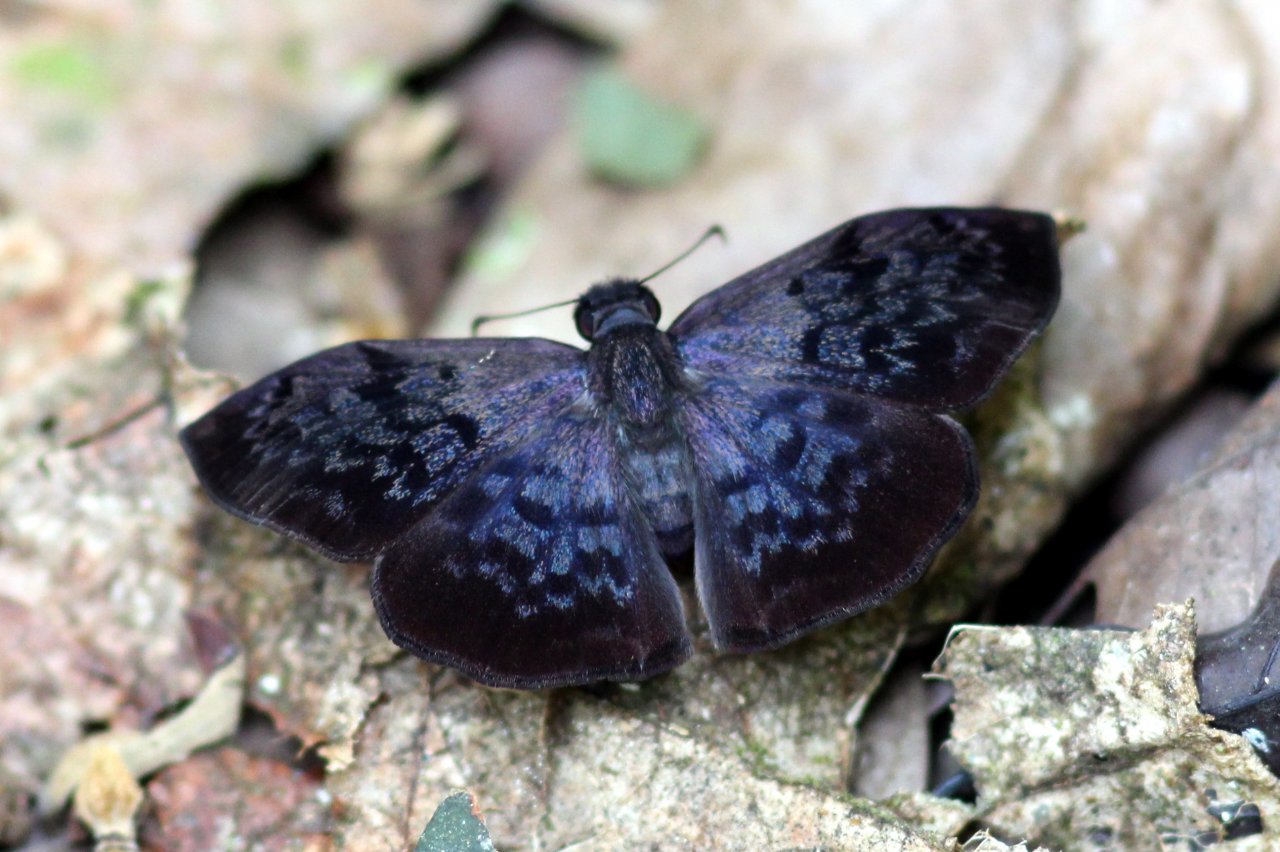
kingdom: Animalia
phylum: Arthropoda
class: Insecta
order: Lepidoptera
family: Hesperiidae
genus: Camptopleura
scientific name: Camptopleura auxo
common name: Auxo Bent-Skipper
